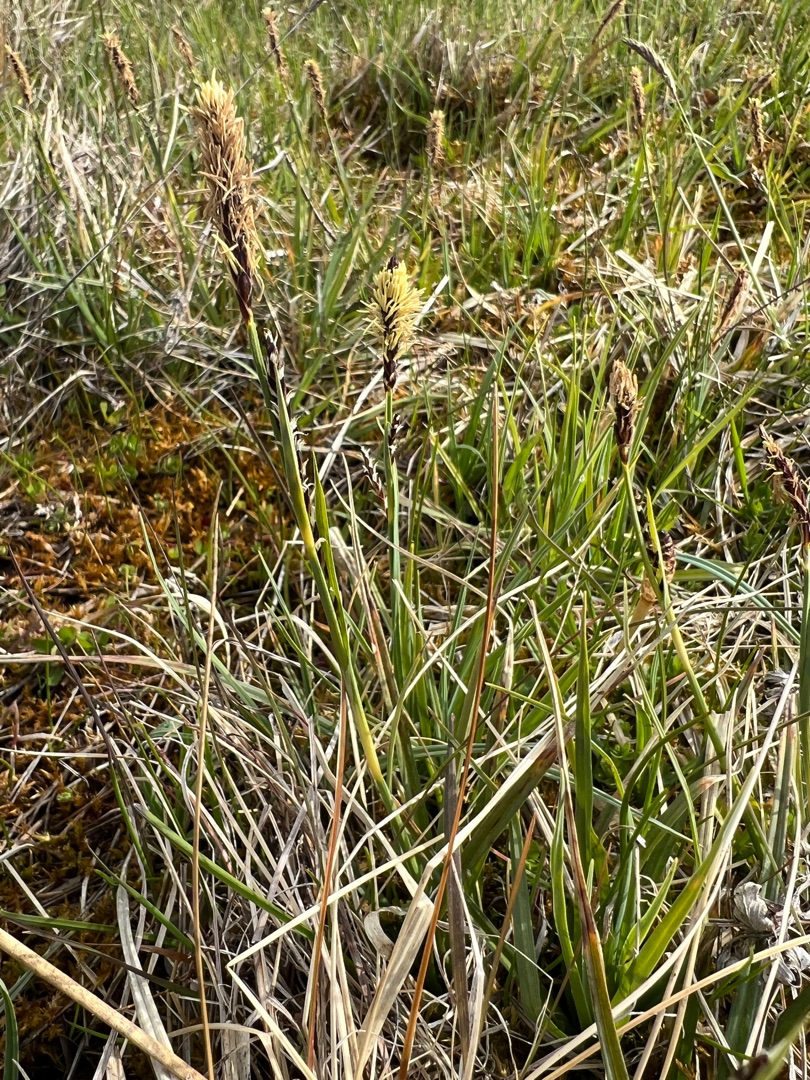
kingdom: Plantae
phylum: Tracheophyta
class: Liliopsida
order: Poales
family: Cyperaceae
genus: Carex
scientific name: Carex panicea
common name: Hirse-star
